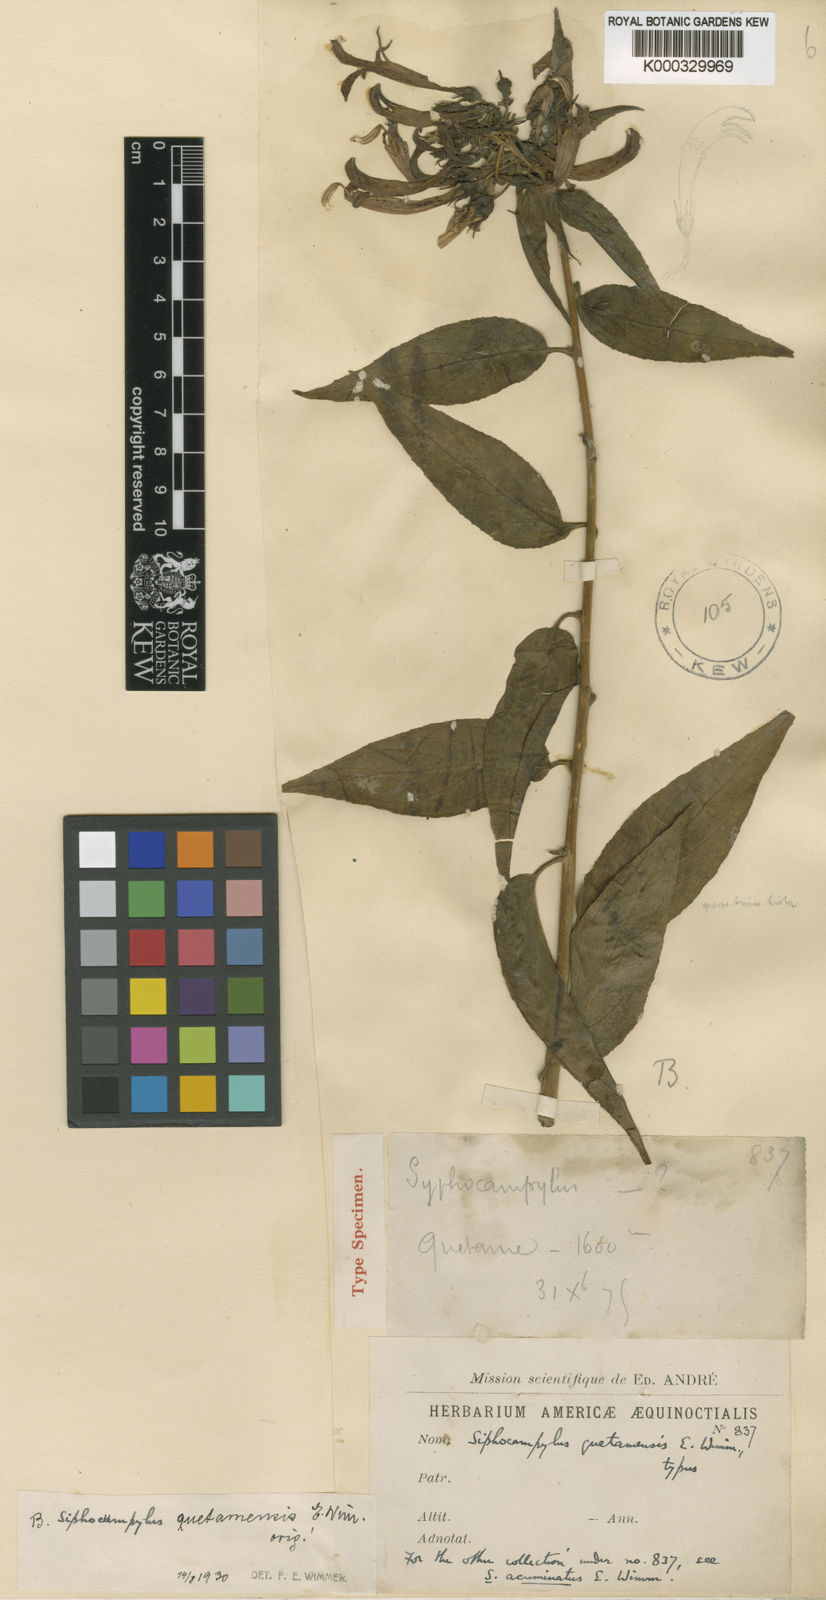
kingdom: Plantae
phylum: Tracheophyta
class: Magnoliopsida
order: Asterales
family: Campanulaceae
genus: Siphocampylus
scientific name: Siphocampylus quetamensis
